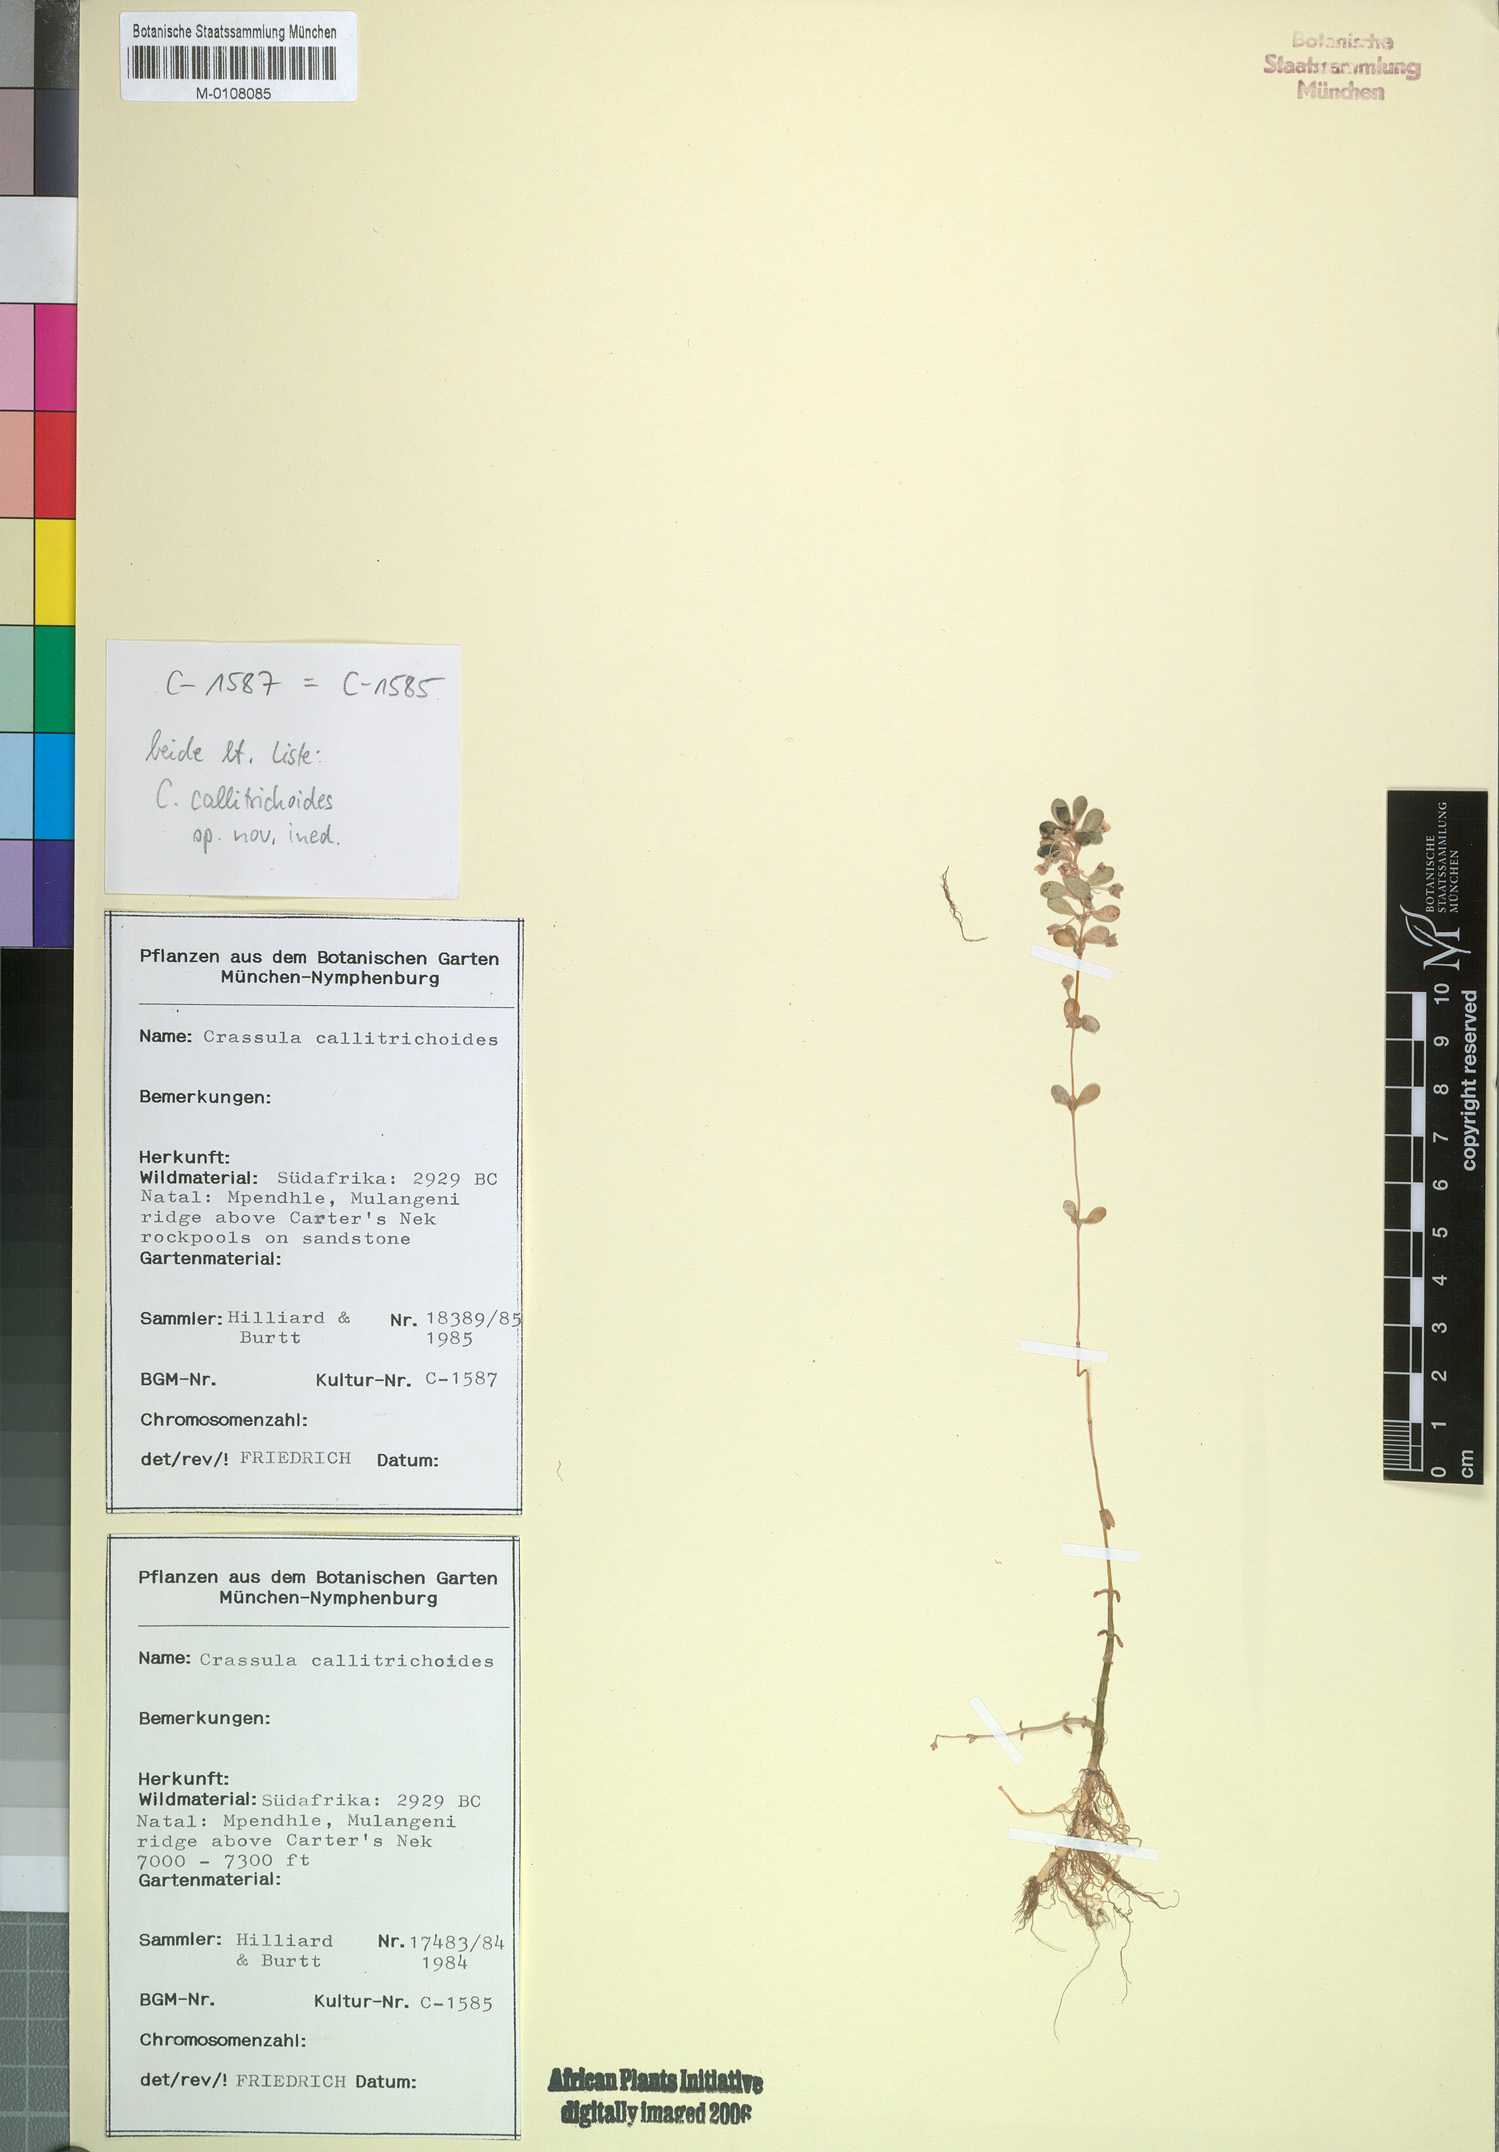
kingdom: Plantae
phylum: Tracheophyta
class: Magnoliopsida
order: Saxifragales
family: Crassulaceae
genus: Crassula
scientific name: Crassula
